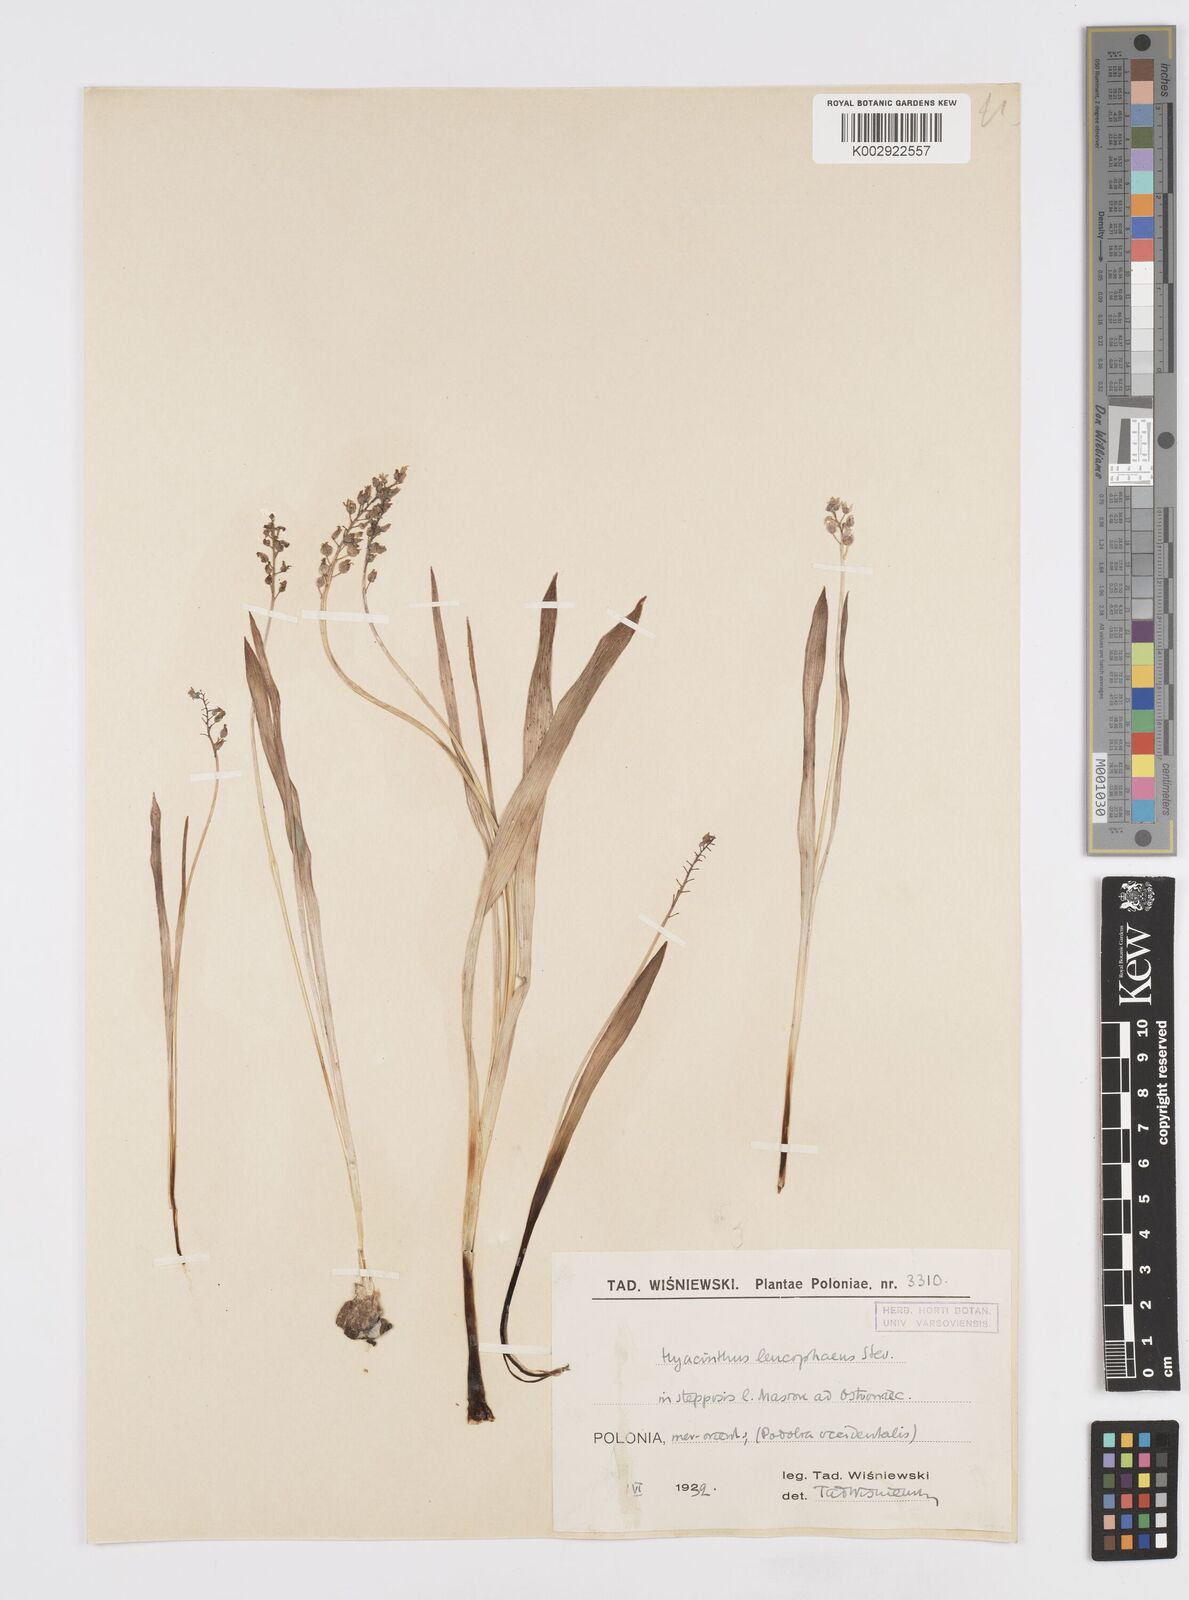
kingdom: Plantae
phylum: Tracheophyta
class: Liliopsida
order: Asparagales
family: Asparagaceae
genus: Hyacinthella
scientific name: Hyacinthella leucophaea
